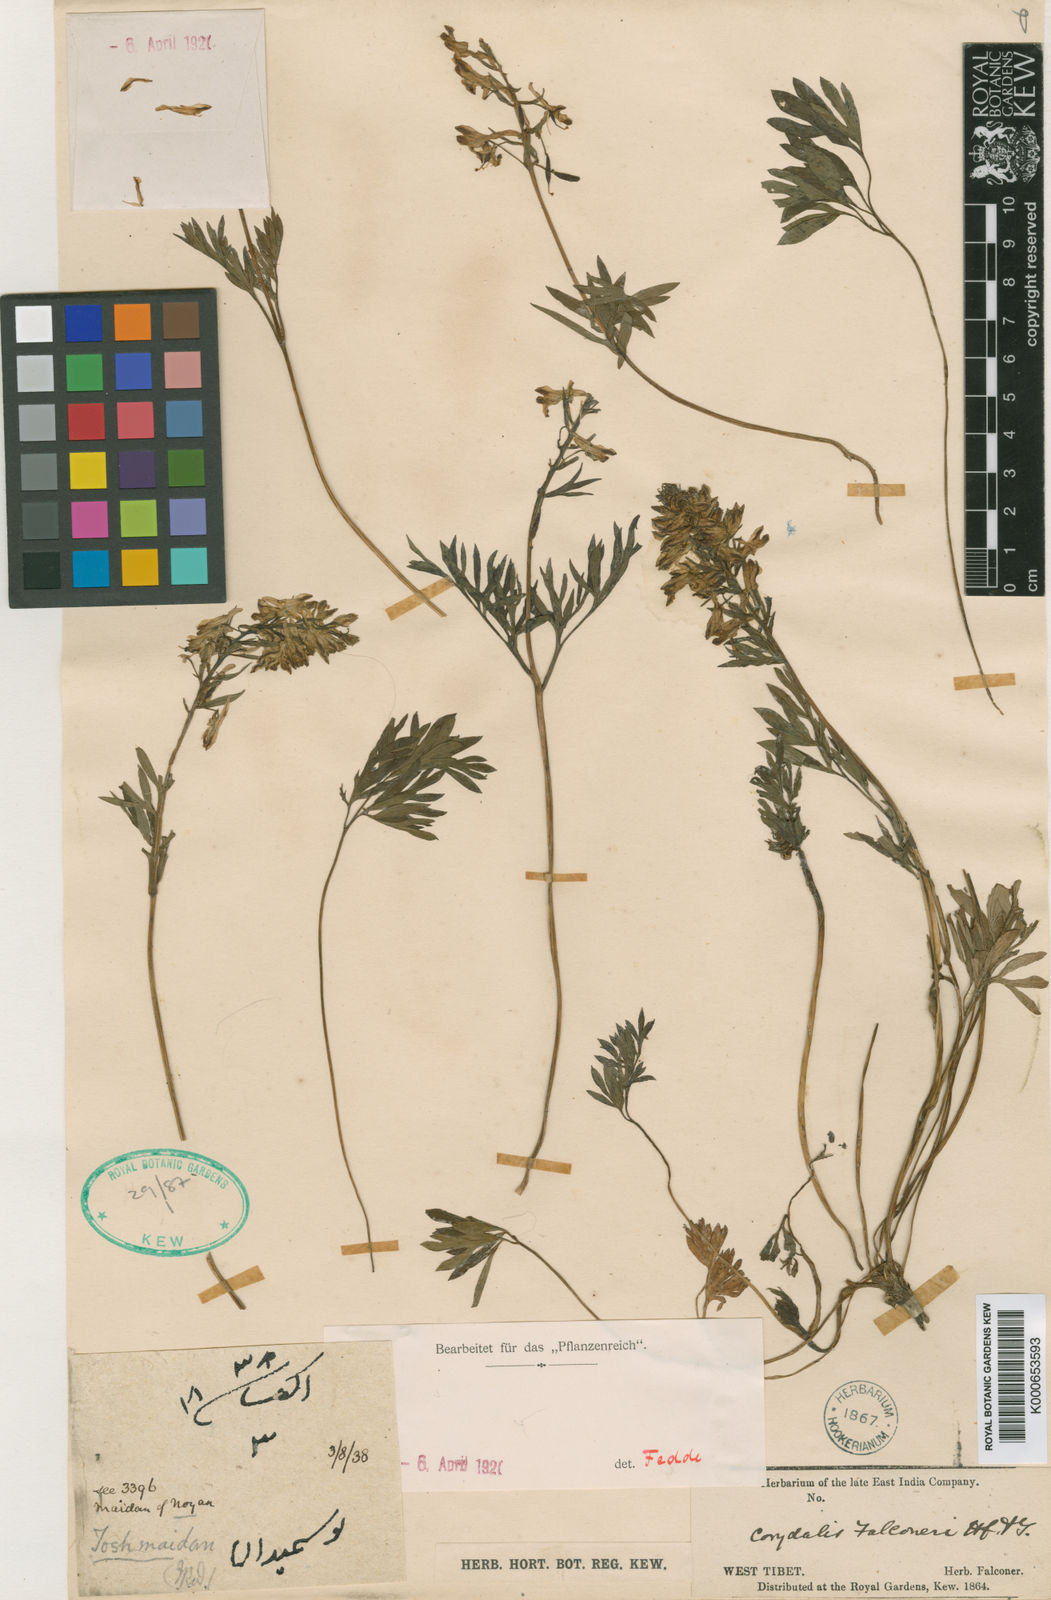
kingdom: Plantae
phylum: Tracheophyta
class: Magnoliopsida
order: Ranunculales
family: Papaveraceae
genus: Corydalis
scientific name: Corydalis falconeri
